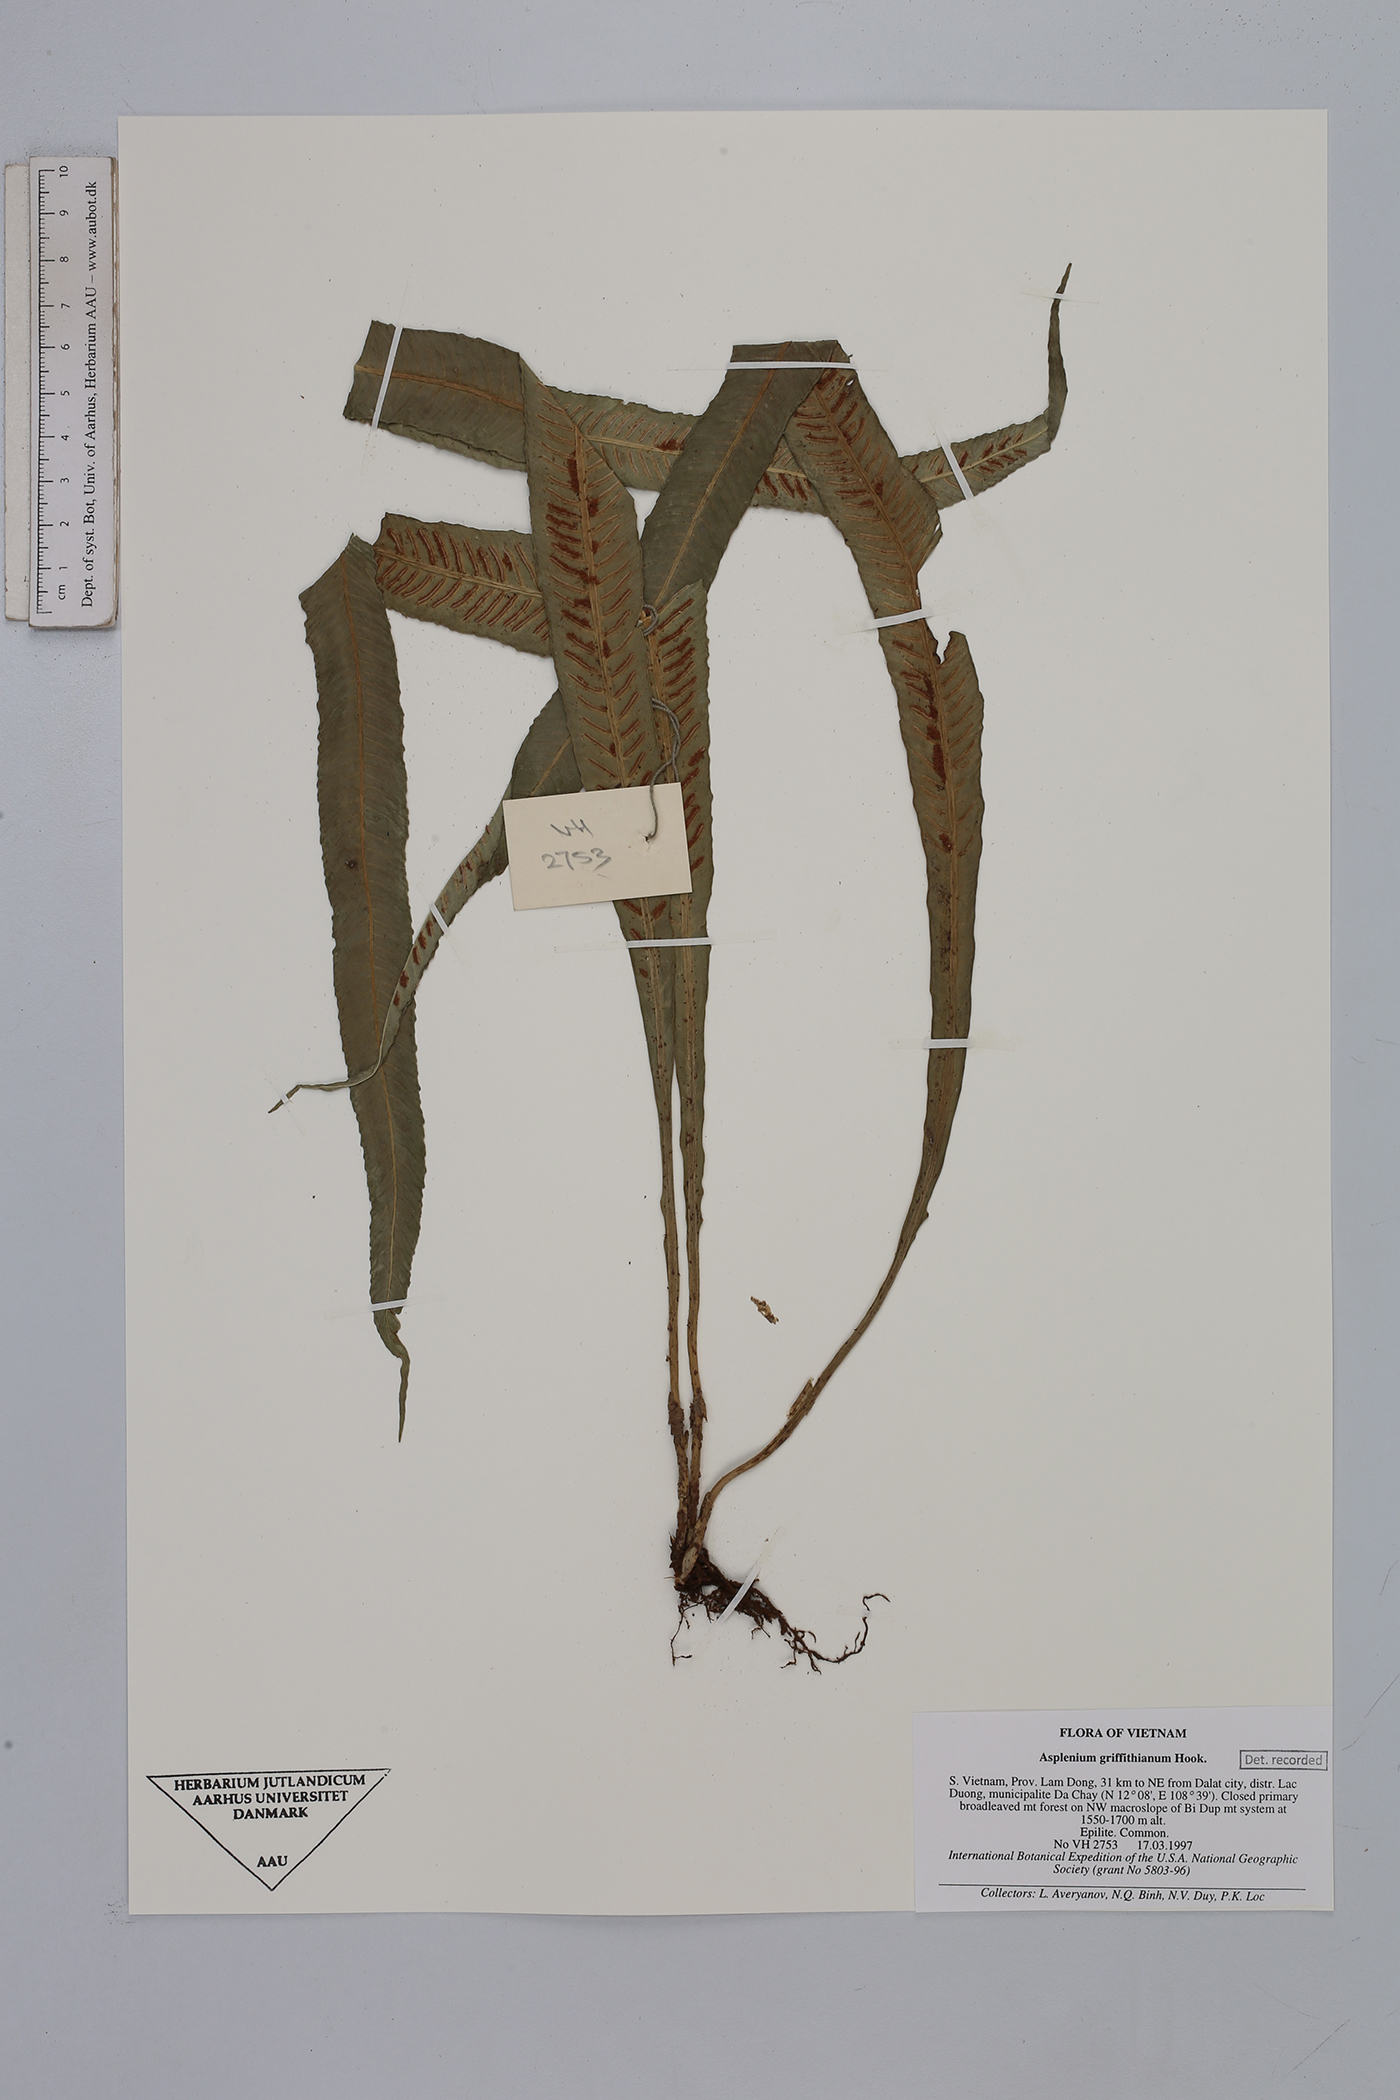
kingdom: Plantae
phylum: Tracheophyta
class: Polypodiopsida
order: Polypodiales
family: Aspleniaceae
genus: Asplenium
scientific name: Asplenium griffithianum
